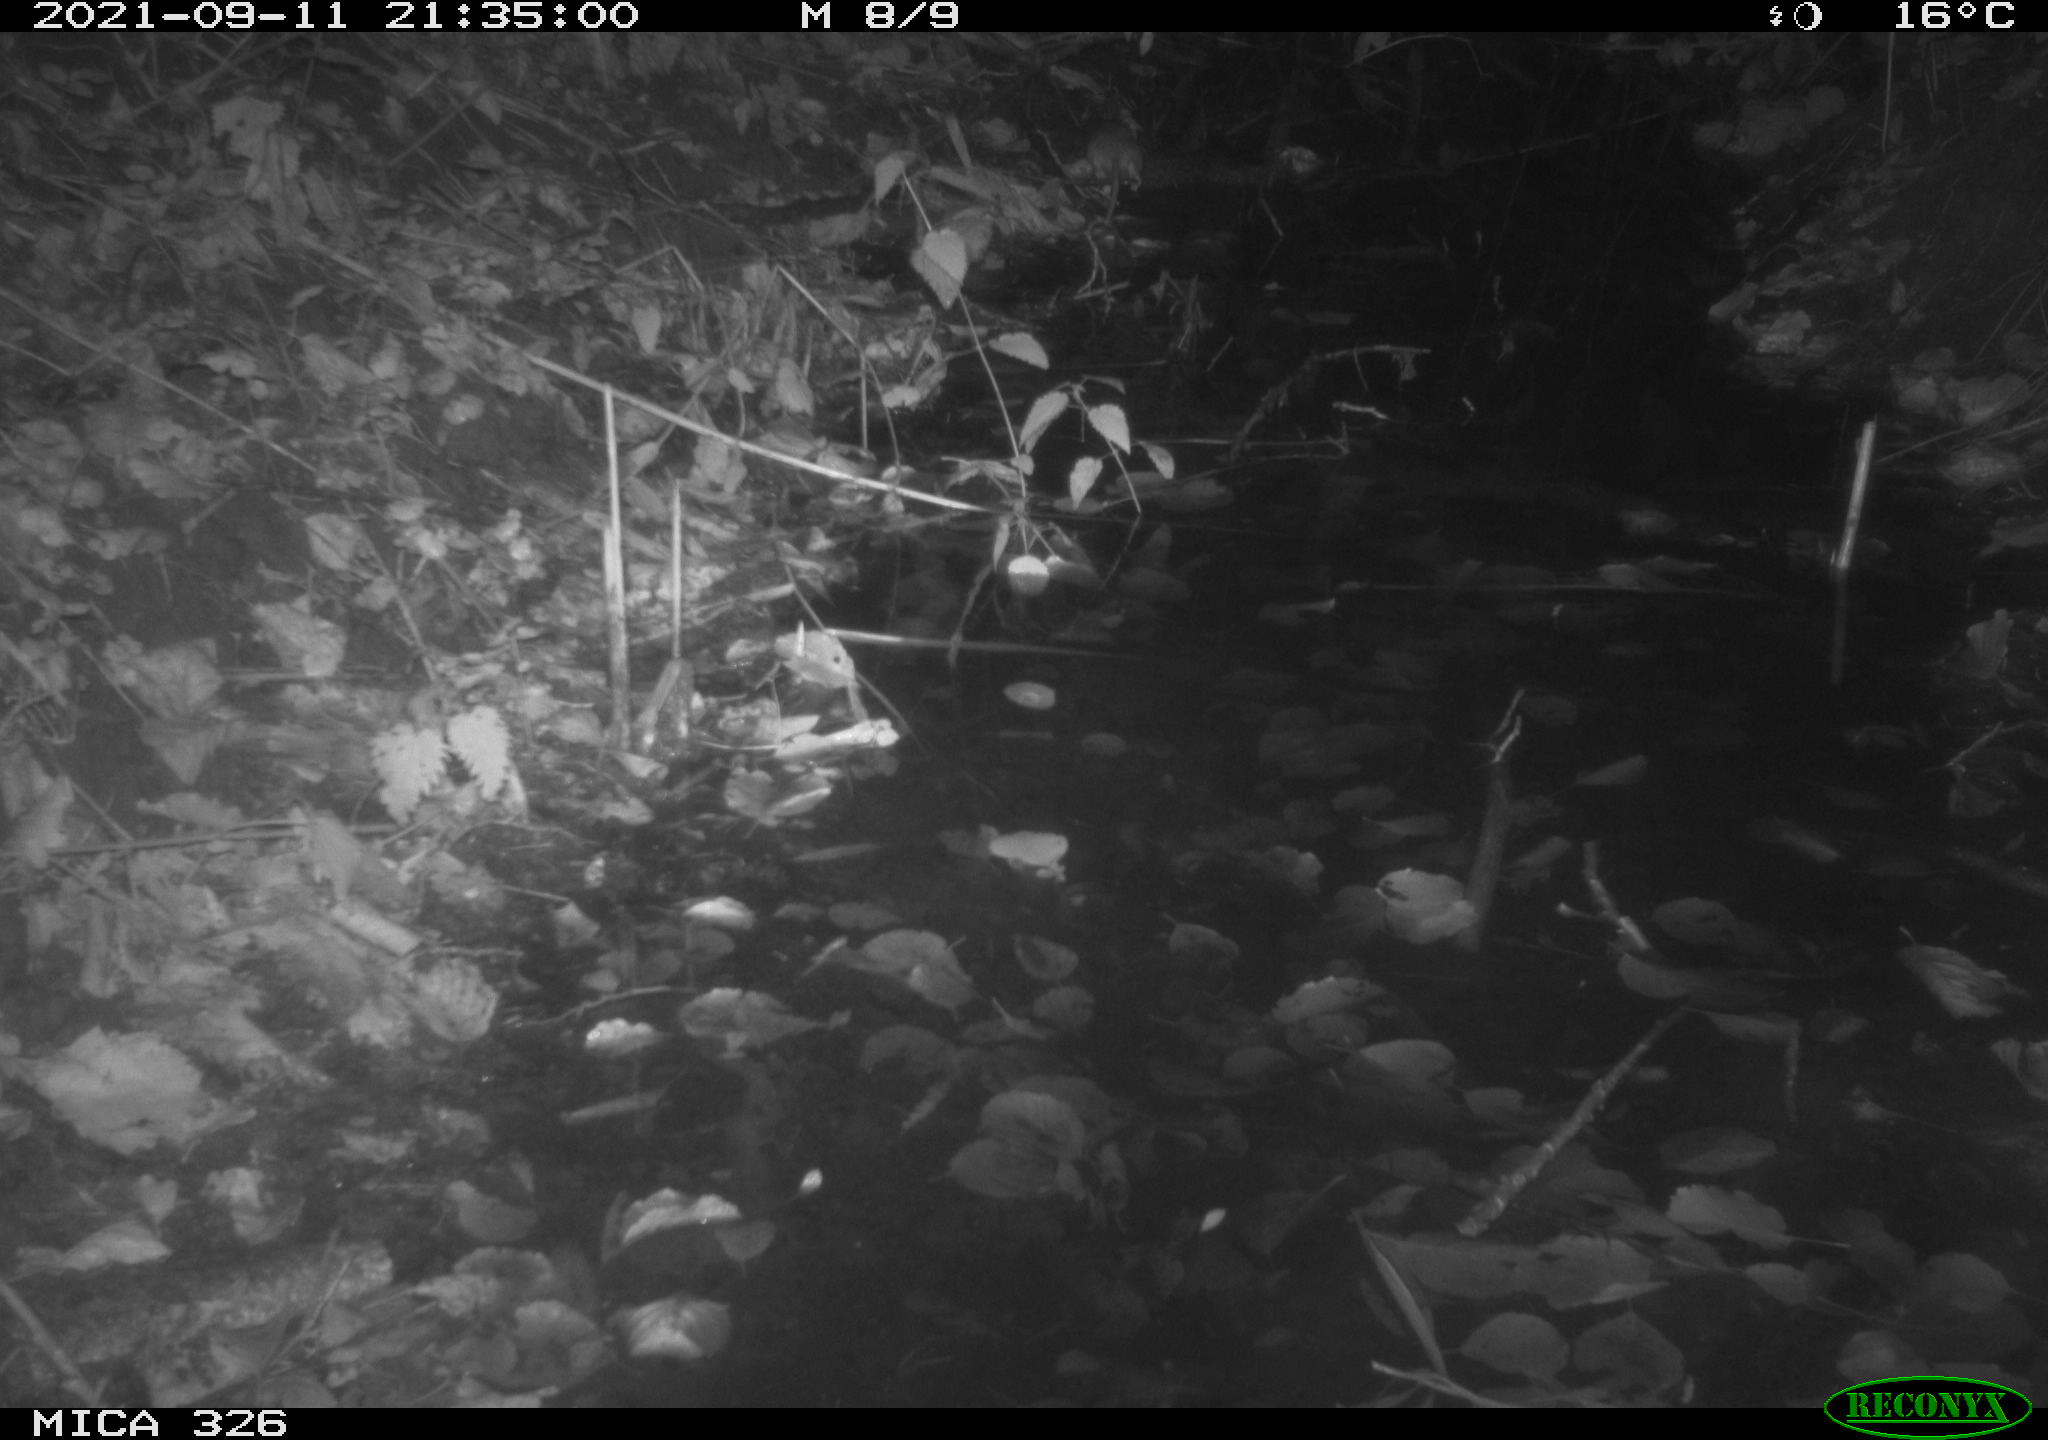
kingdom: Animalia
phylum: Chordata
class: Mammalia
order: Rodentia
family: Muridae
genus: Rattus
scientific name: Rattus norvegicus
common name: Brown rat
